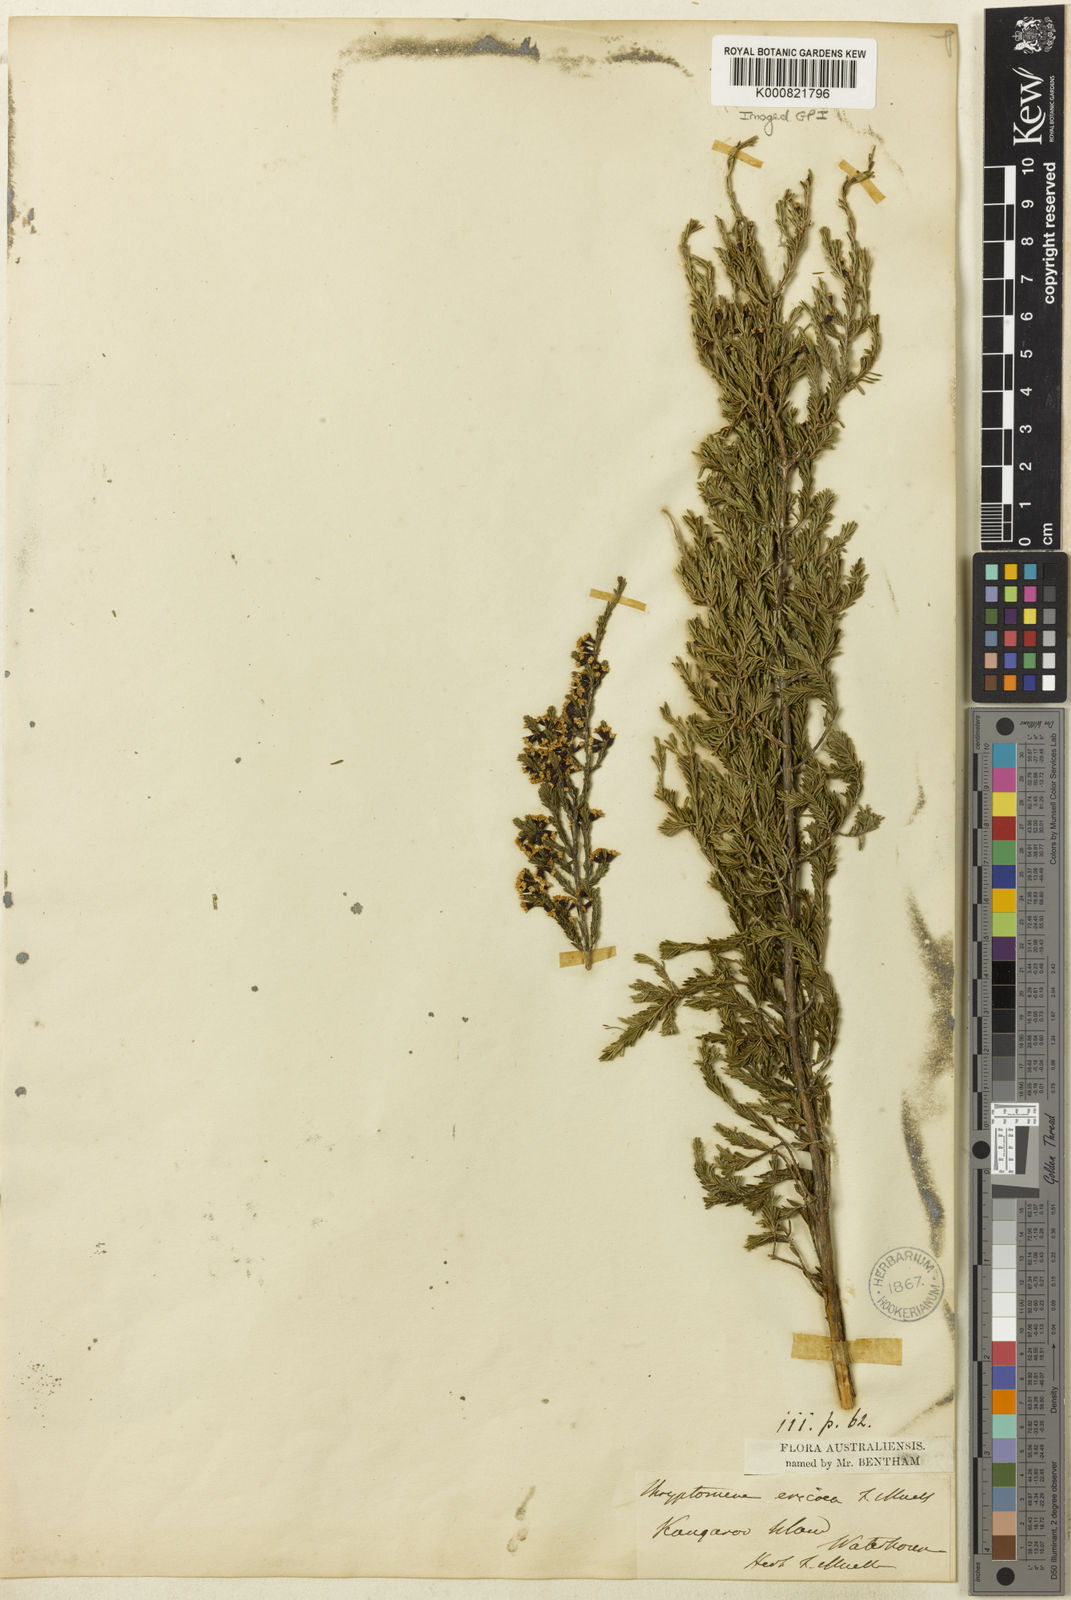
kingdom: Plantae
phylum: Tracheophyta
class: Magnoliopsida
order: Myrtales
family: Myrtaceae
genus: Thryptomene
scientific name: Thryptomene ericaea
